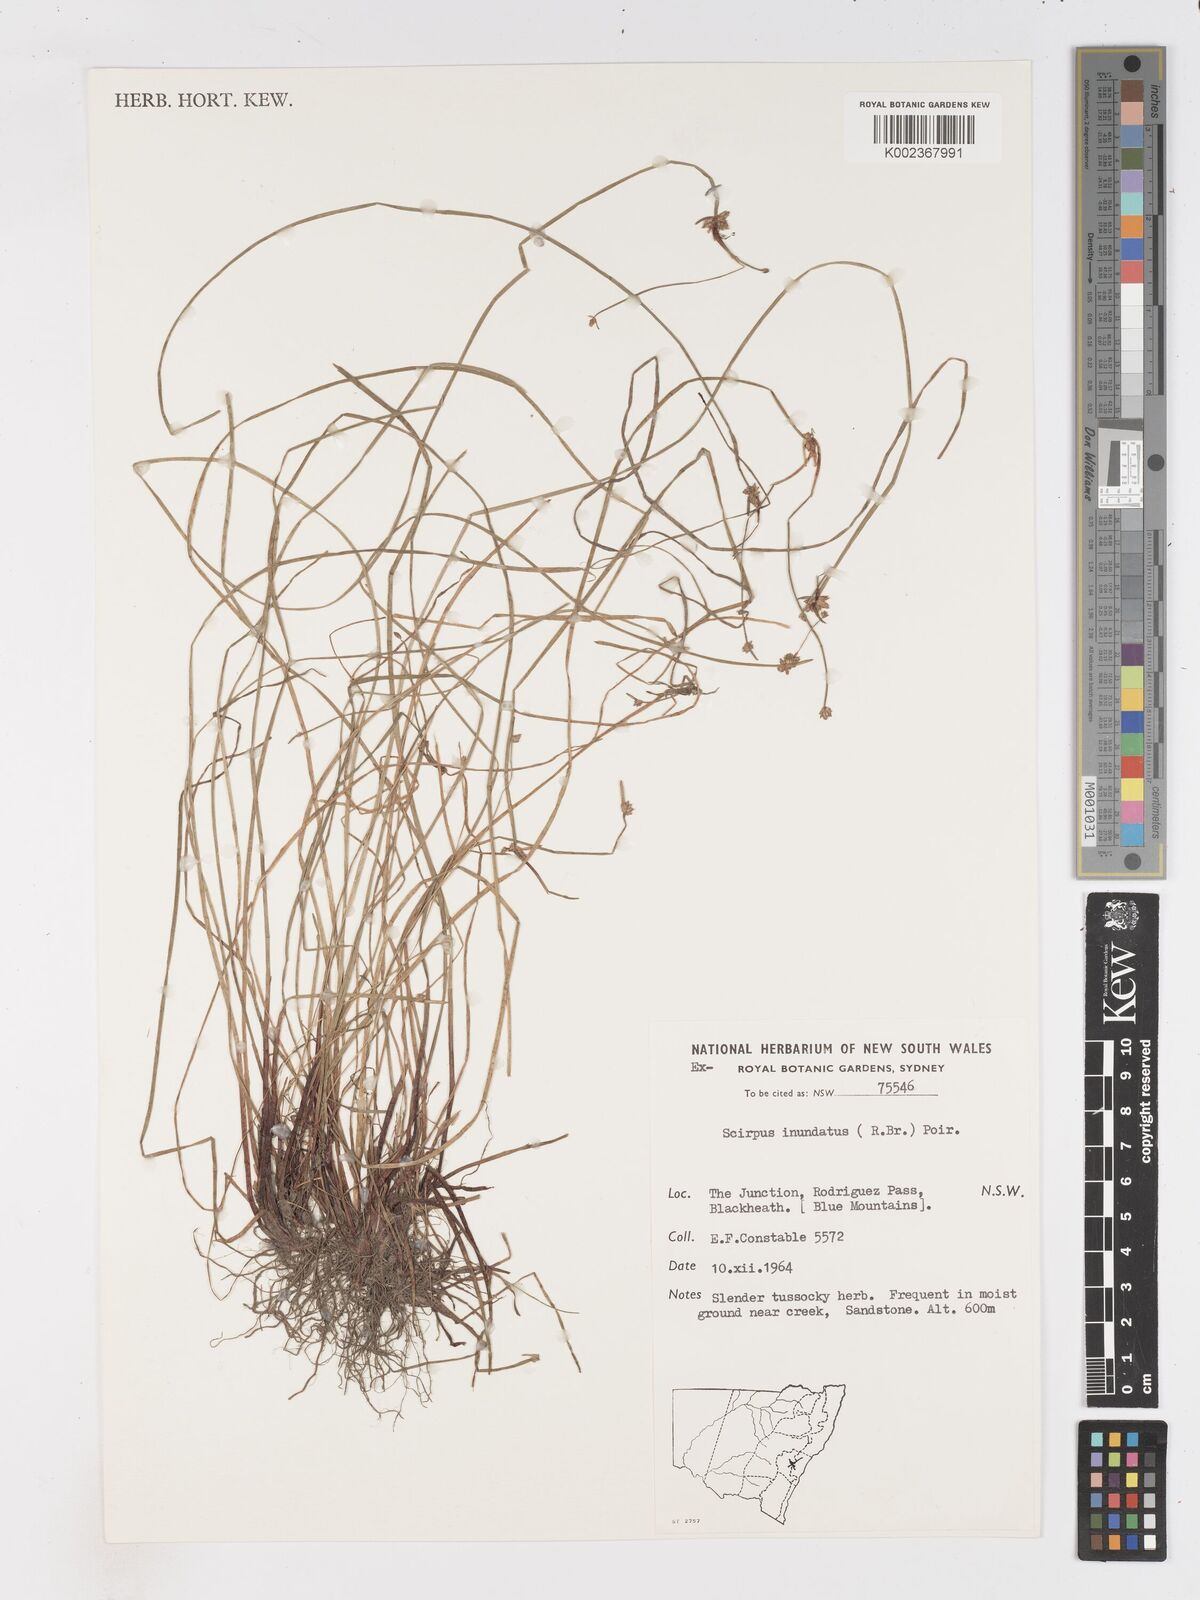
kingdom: Plantae
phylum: Tracheophyta
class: Liliopsida
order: Poales
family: Cyperaceae
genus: Isolepis
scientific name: Isolepis inundata
